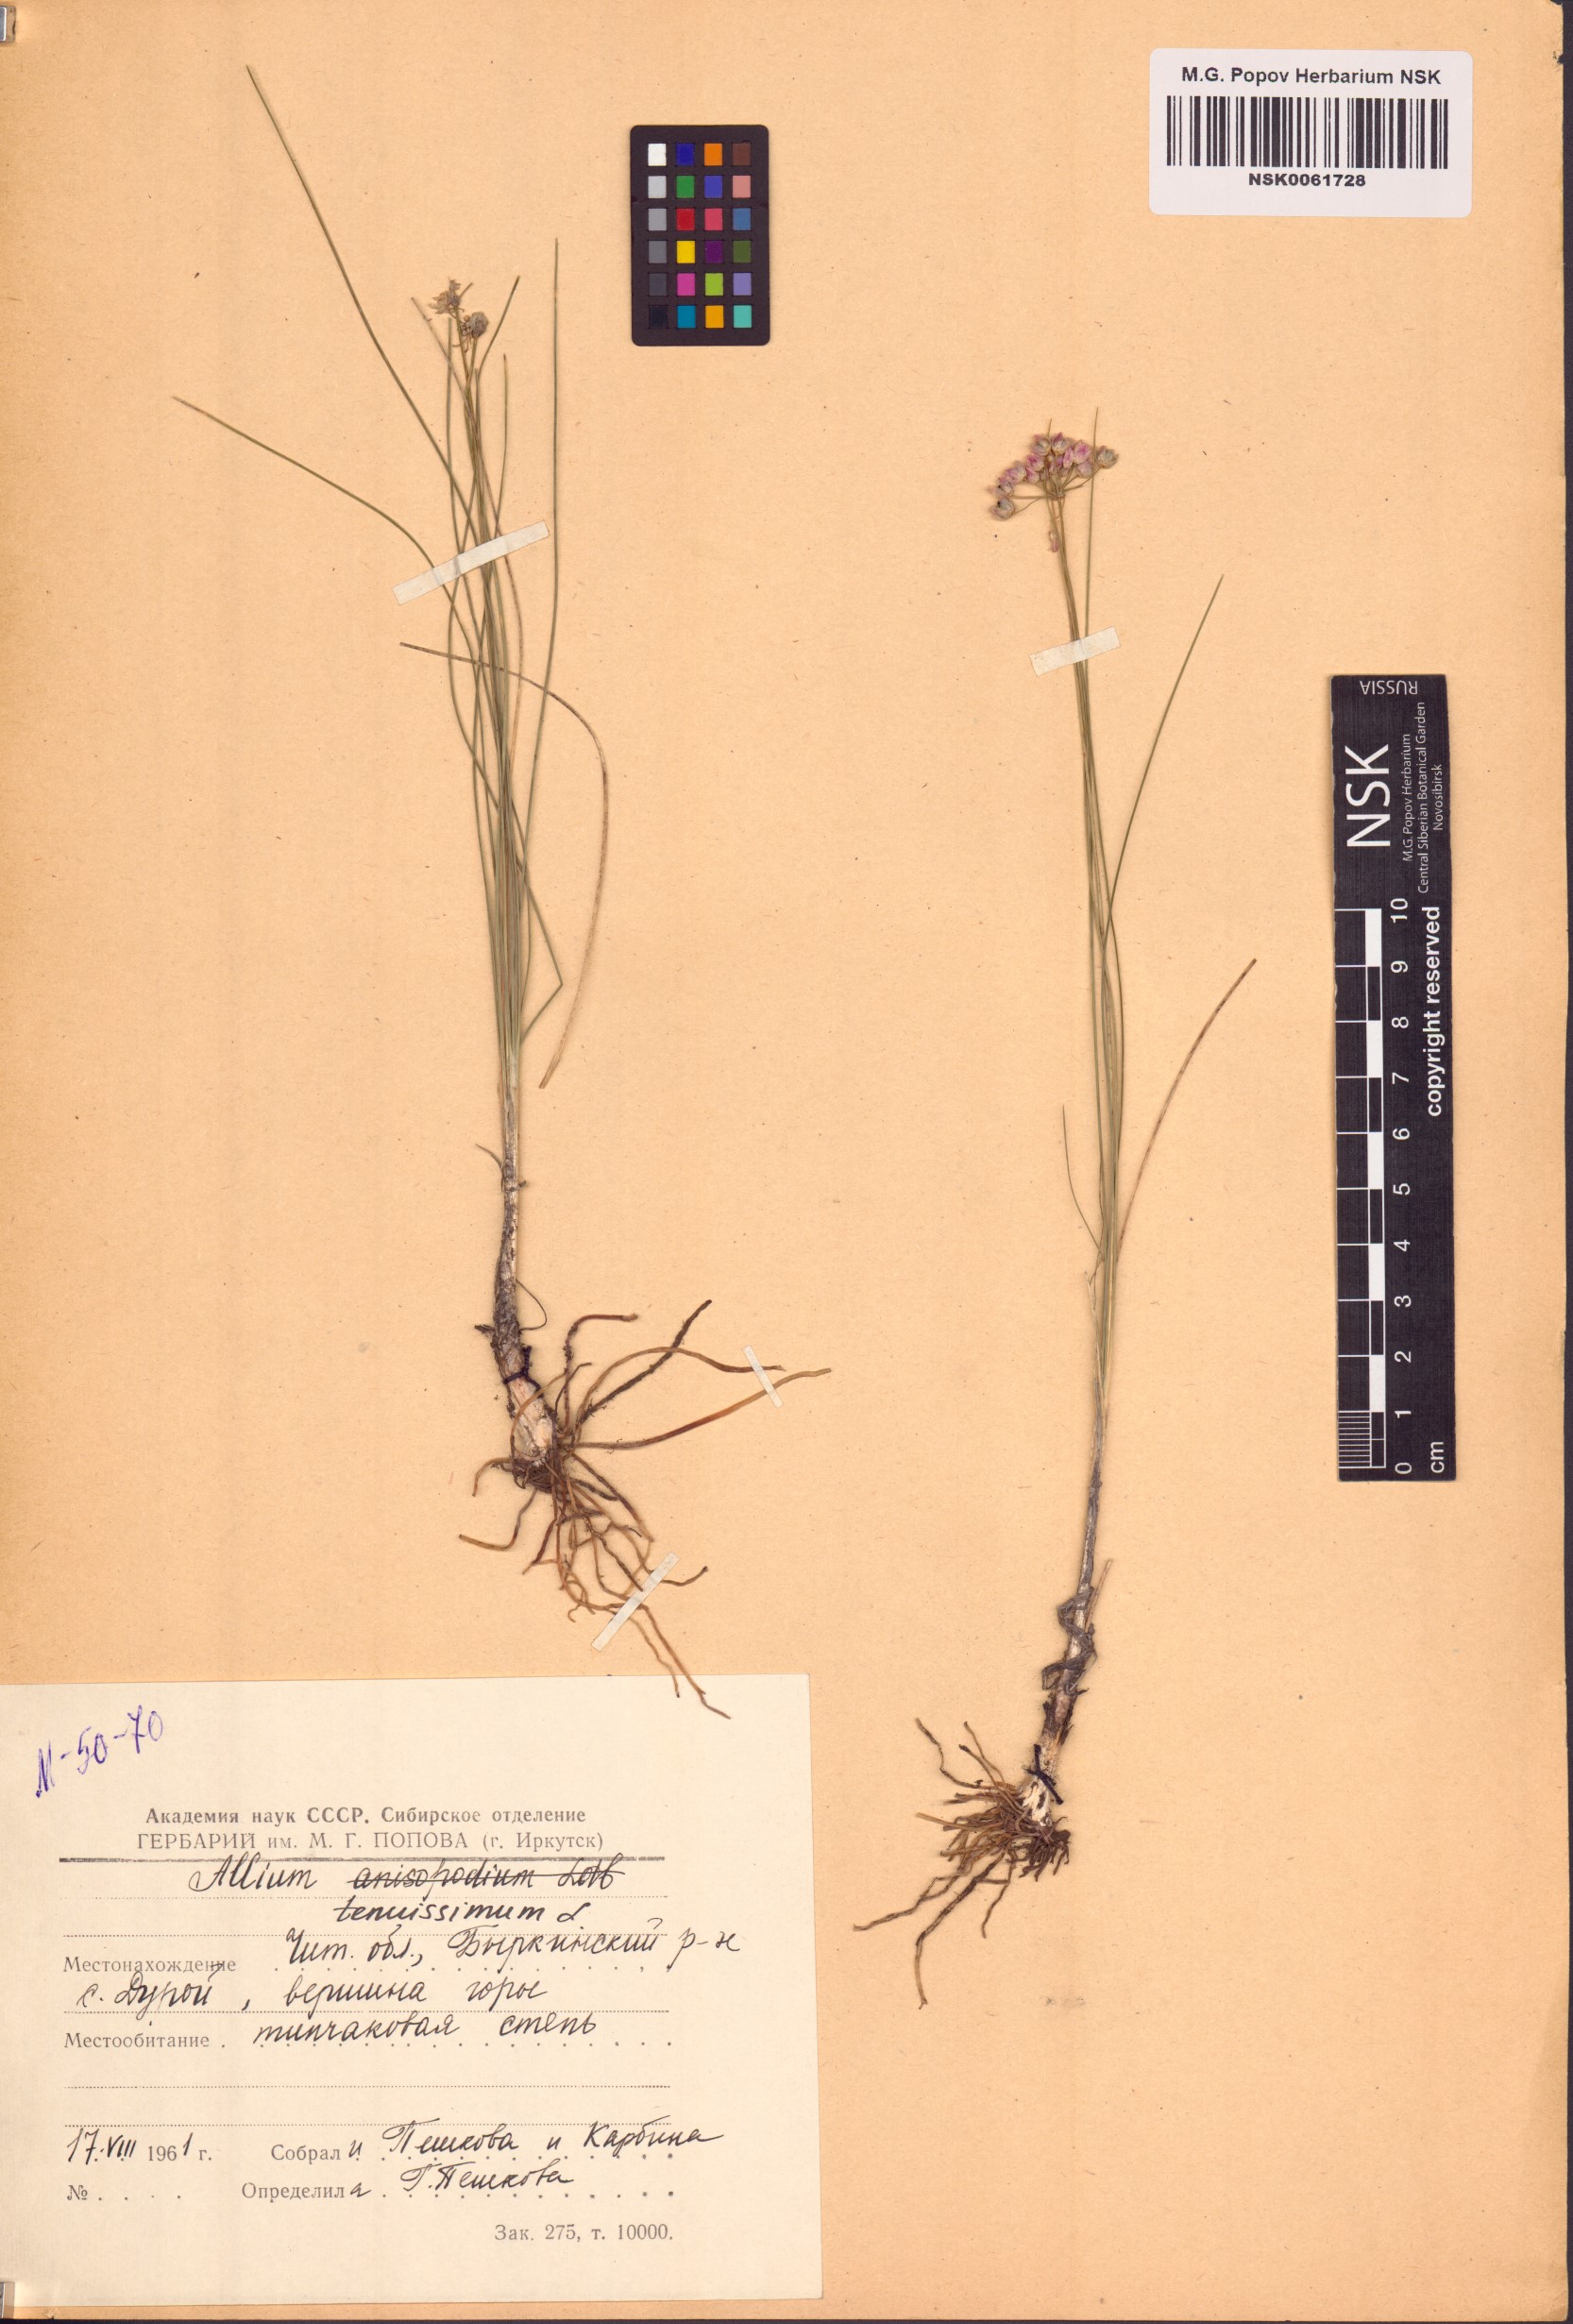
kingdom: Plantae
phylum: Tracheophyta
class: Liliopsida
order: Asparagales
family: Amaryllidaceae
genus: Allium
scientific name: Allium tenuissimum
